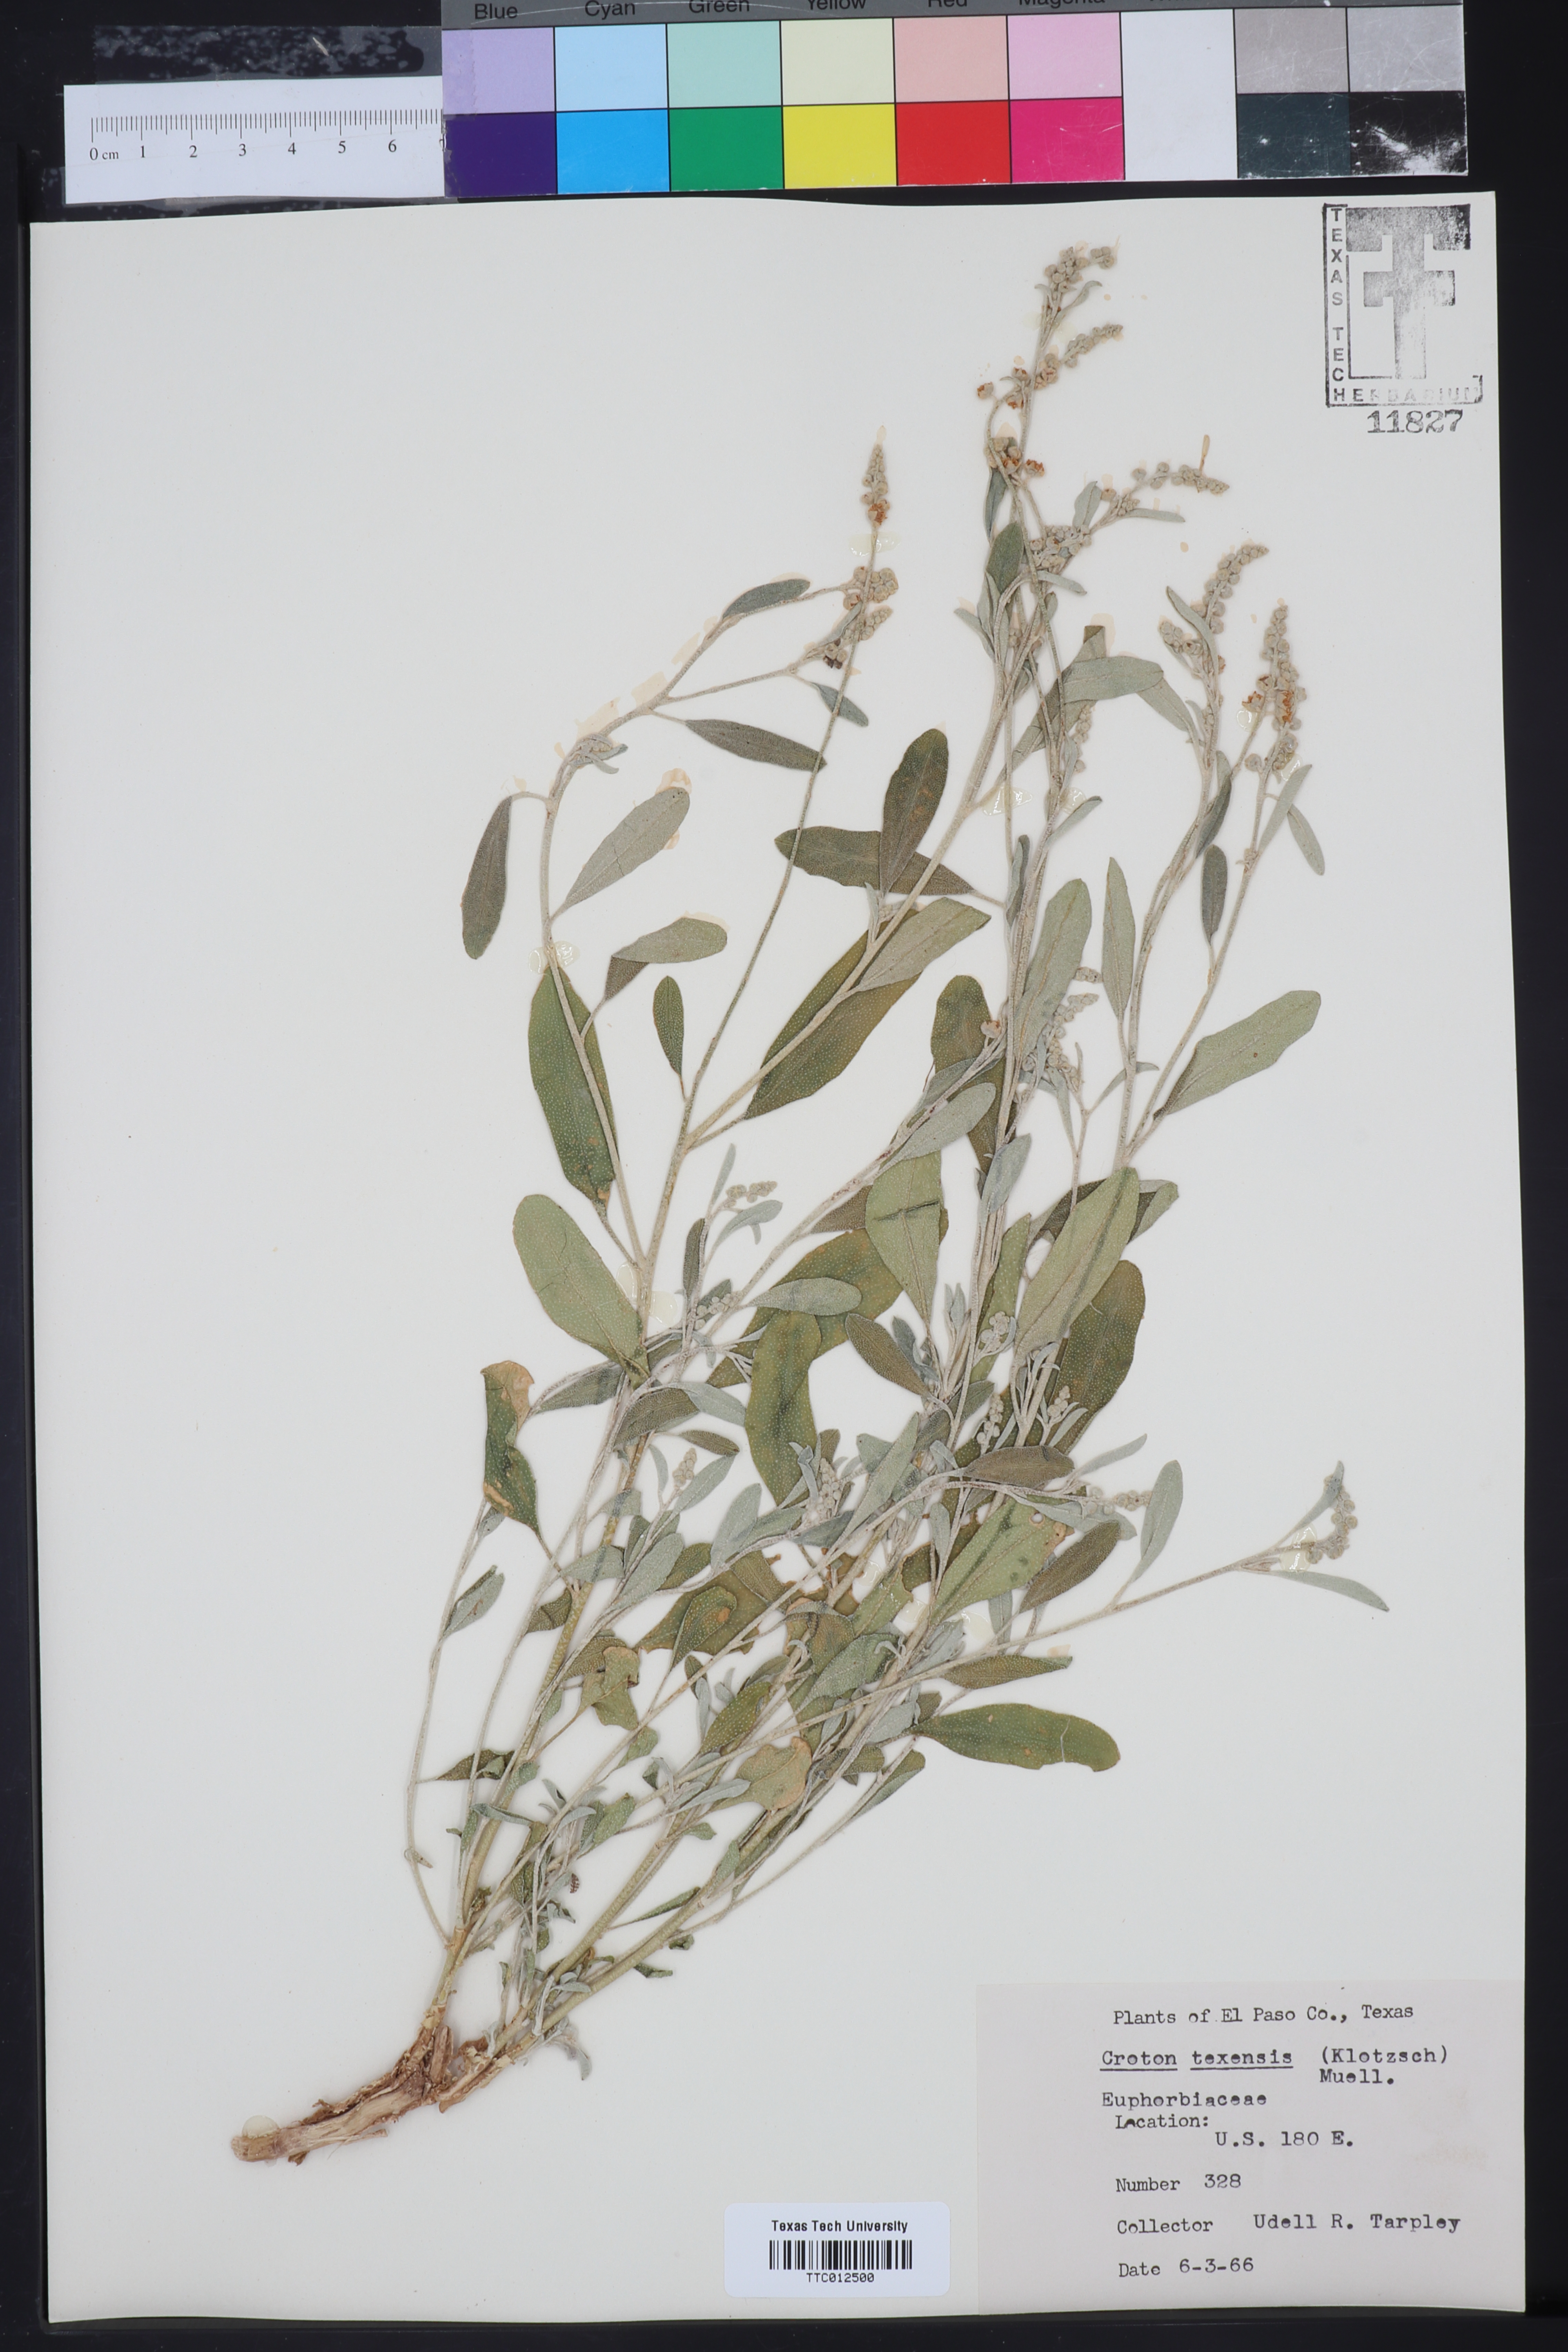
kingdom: Plantae
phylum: Tracheophyta
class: Magnoliopsida
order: Malpighiales
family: Euphorbiaceae
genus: Croton
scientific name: Croton texensis
